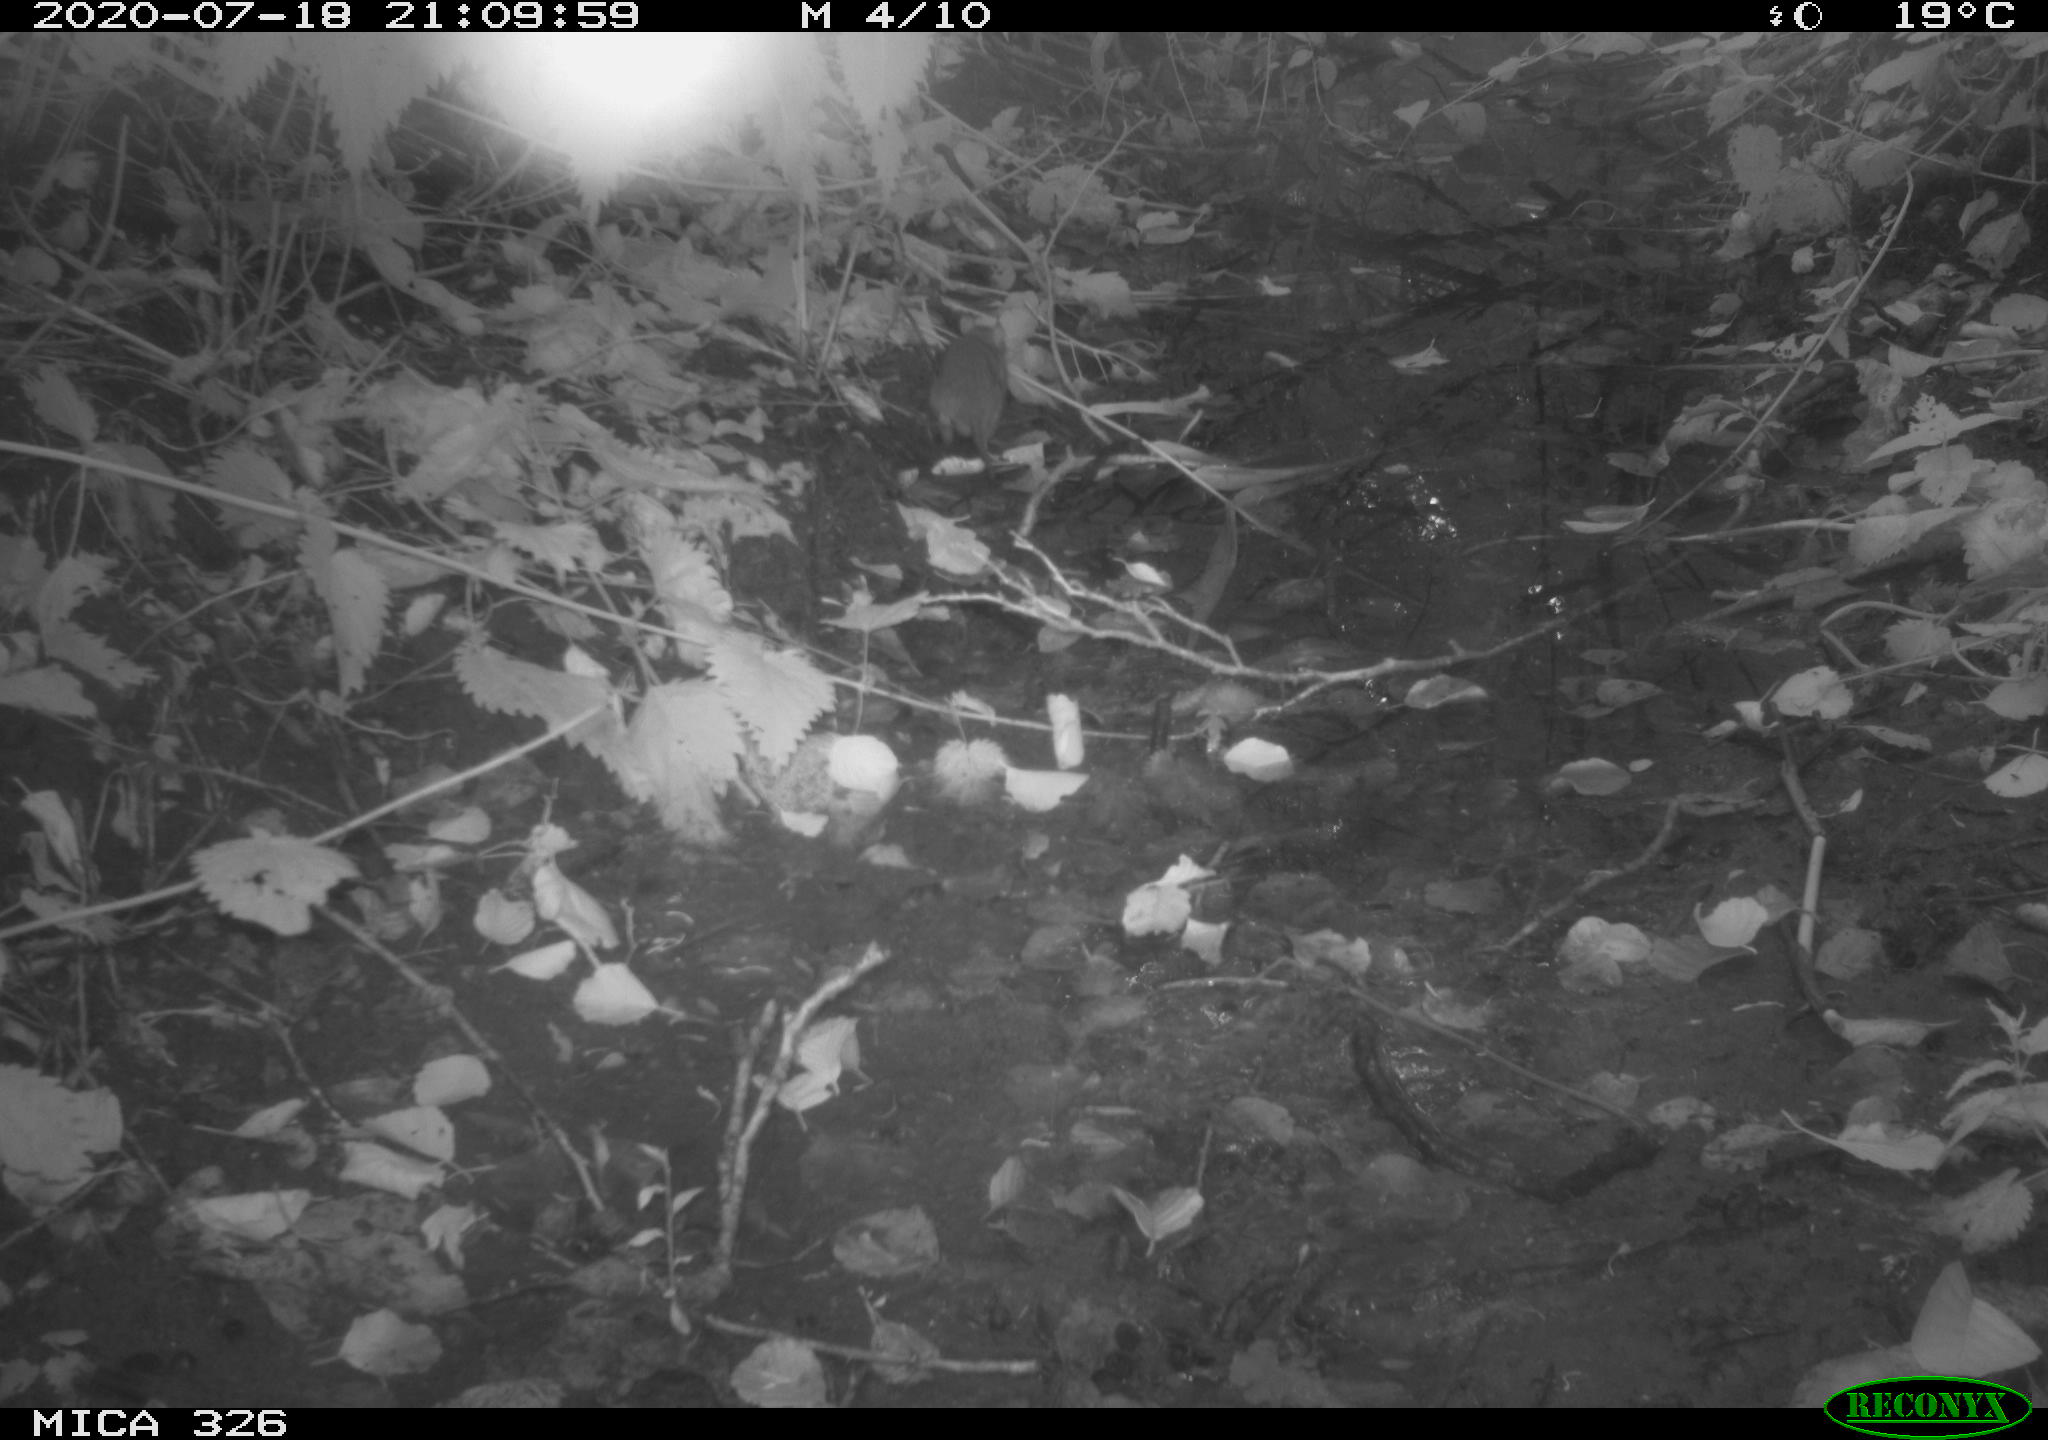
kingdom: Animalia
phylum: Chordata
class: Mammalia
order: Rodentia
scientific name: Rodentia
